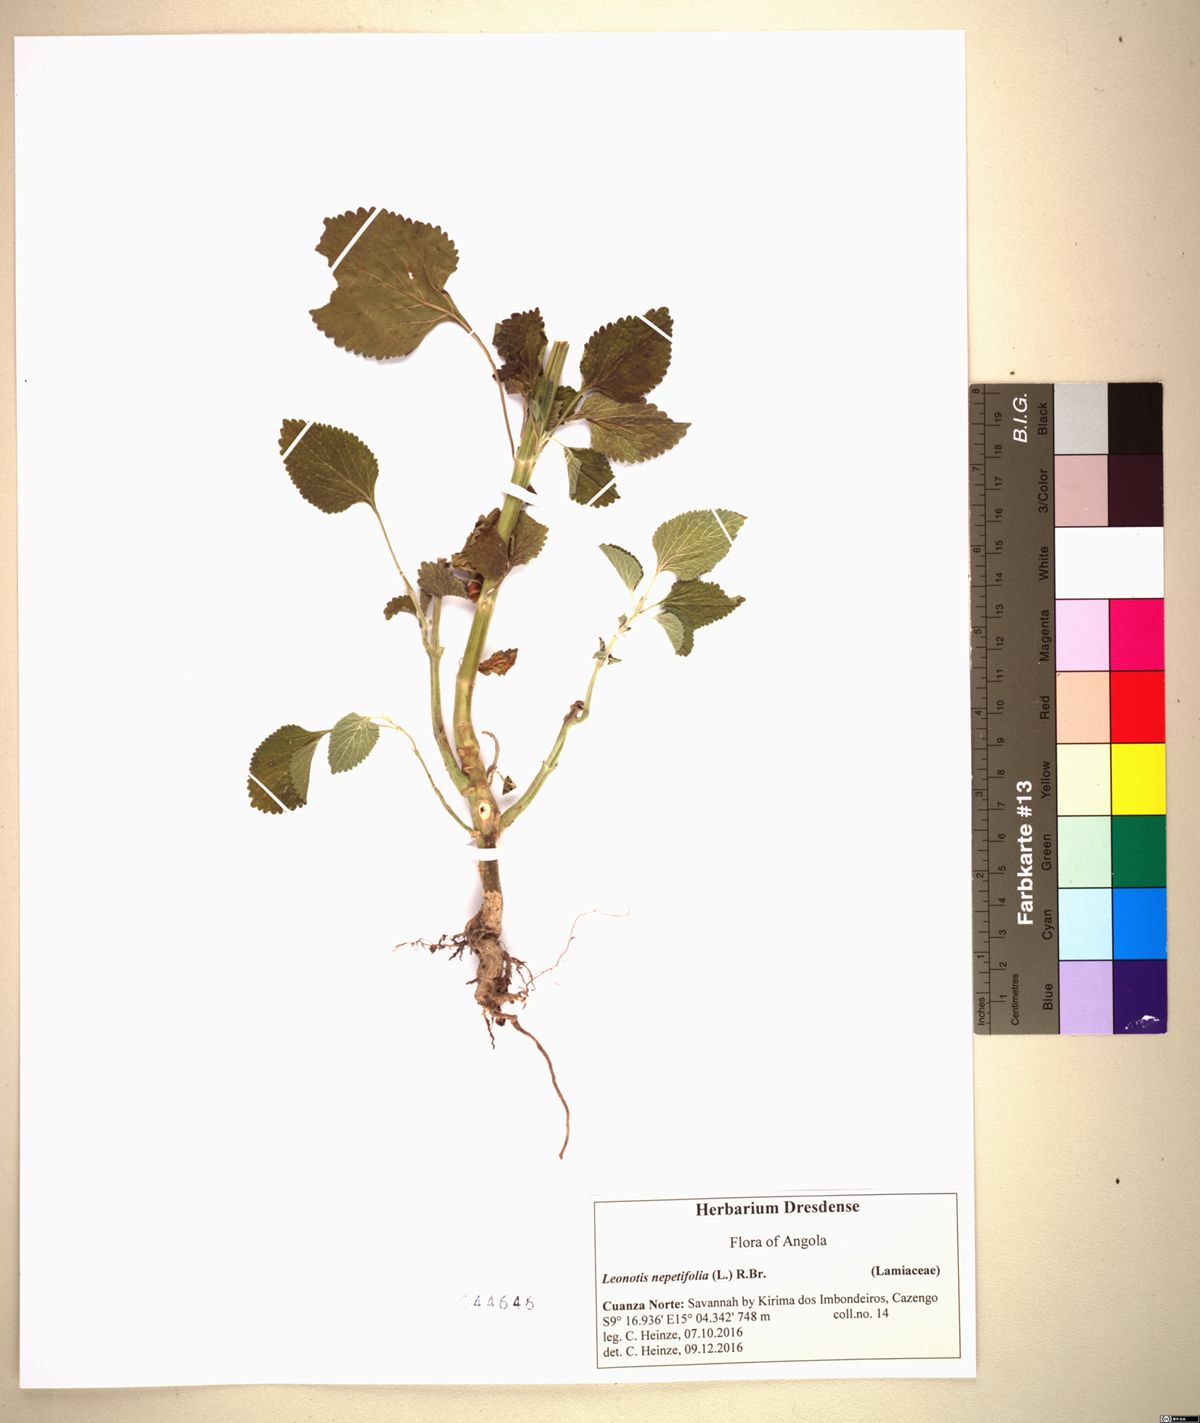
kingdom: Plantae
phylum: Tracheophyta
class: Magnoliopsida
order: Lamiales
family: Lamiaceae
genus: Leonotis
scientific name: Leonotis nepetifolia
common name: Christmas candlestick
